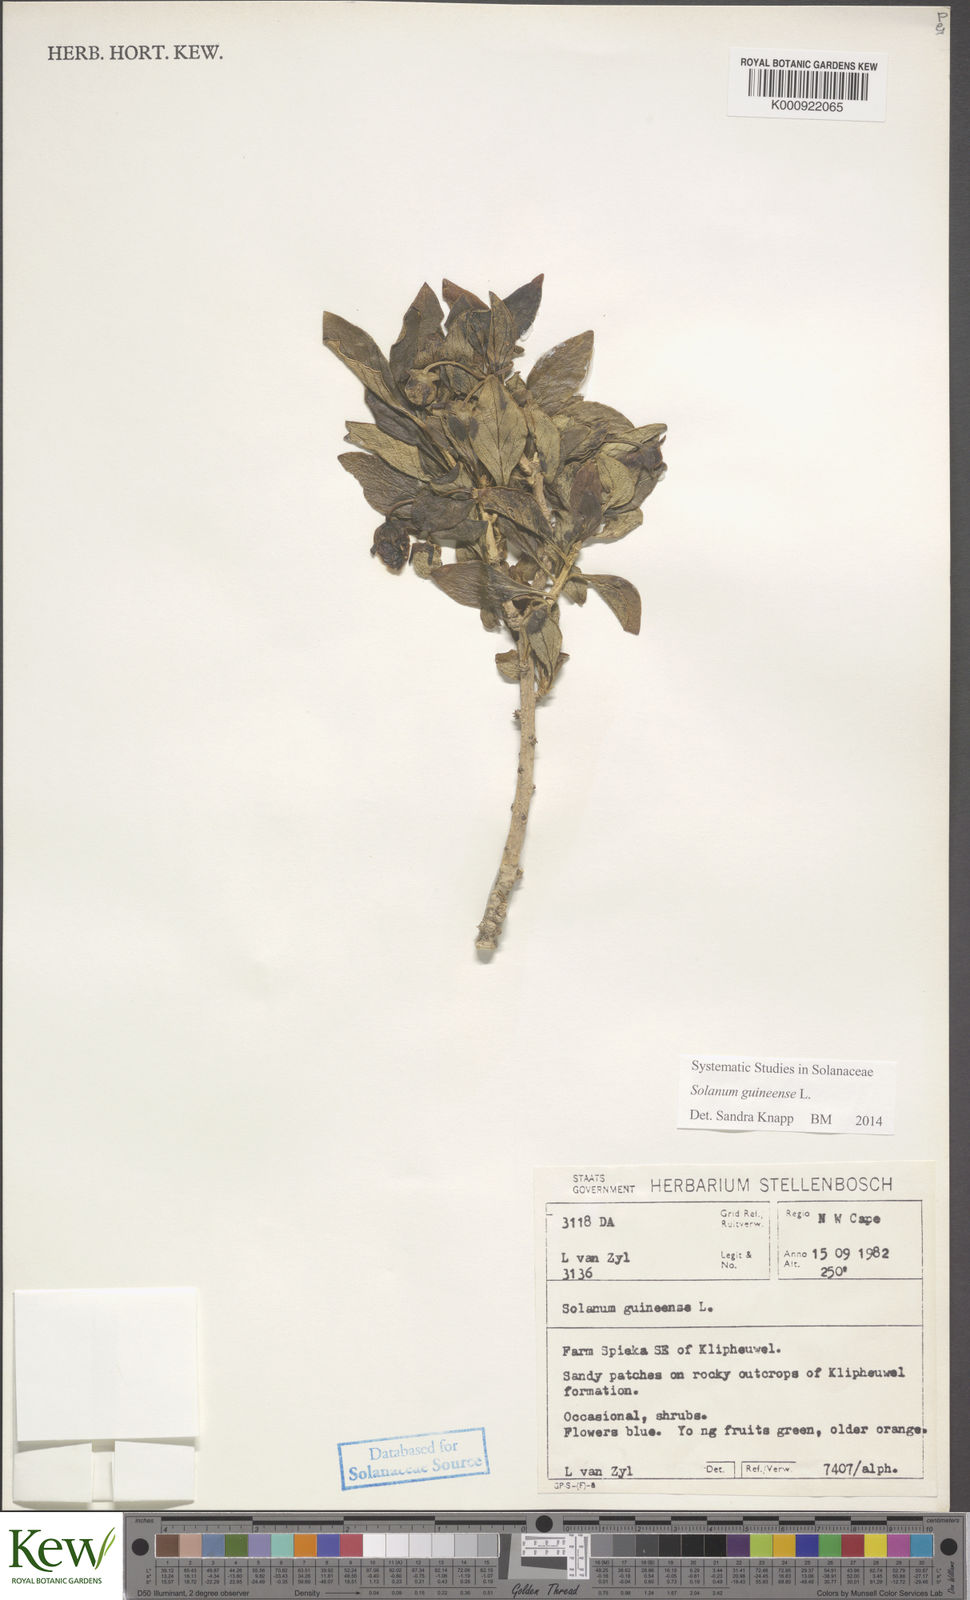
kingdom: Plantae
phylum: Tracheophyta
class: Magnoliopsida
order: Solanales
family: Solanaceae
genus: Solanum
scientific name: Solanum guineense
